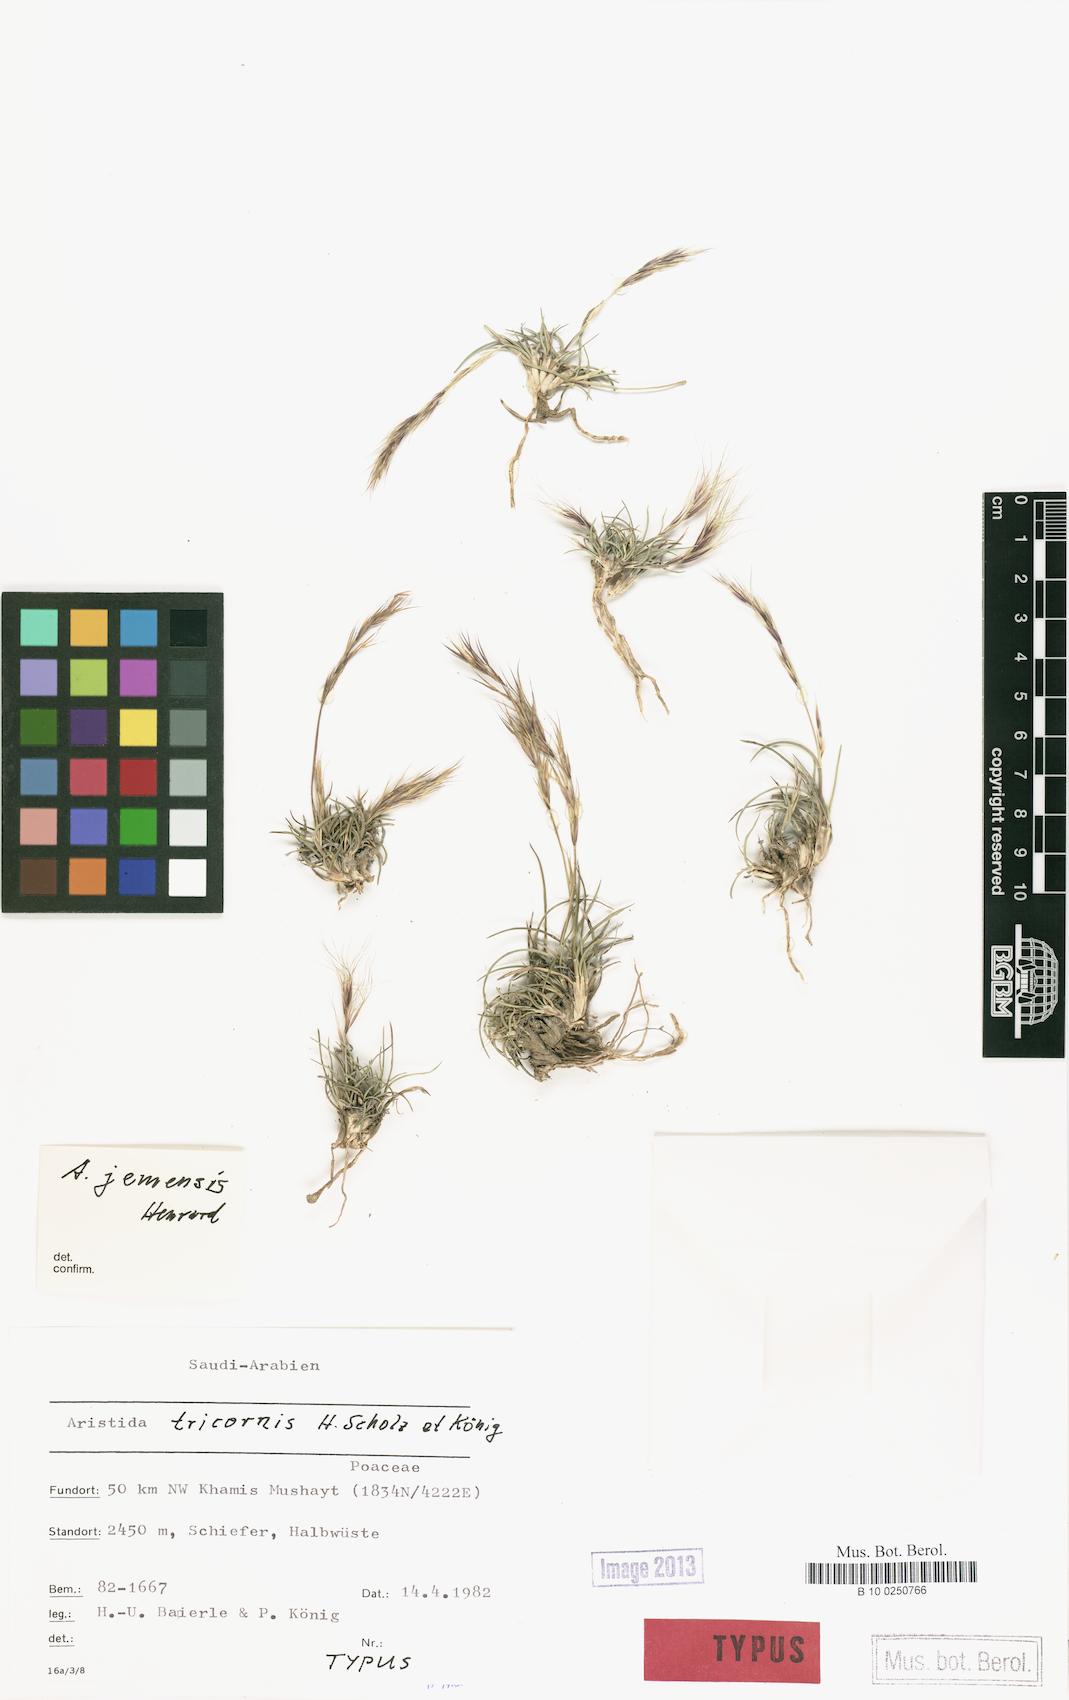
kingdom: Plantae
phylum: Tracheophyta
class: Liliopsida
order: Poales
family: Poaceae
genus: Aristida
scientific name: Aristida tricornis
